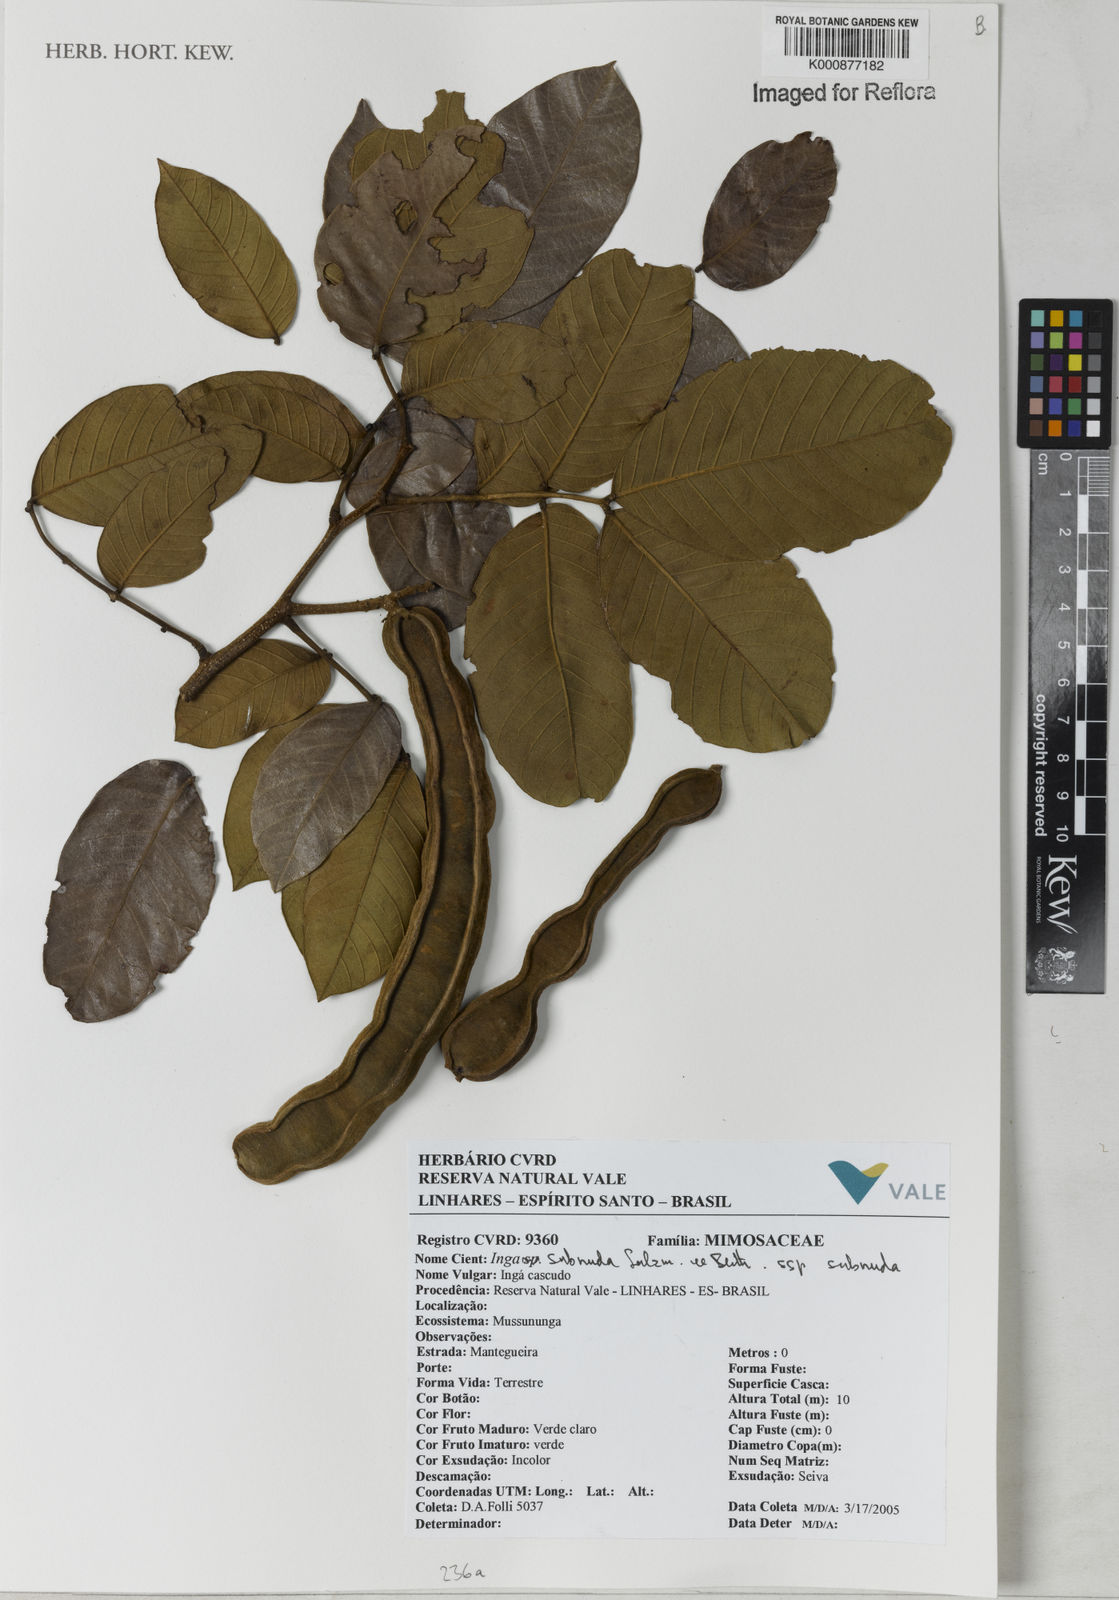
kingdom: Plantae
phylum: Tracheophyta
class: Magnoliopsida
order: Fabales
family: Fabaceae
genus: Inga
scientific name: Inga subnuda
